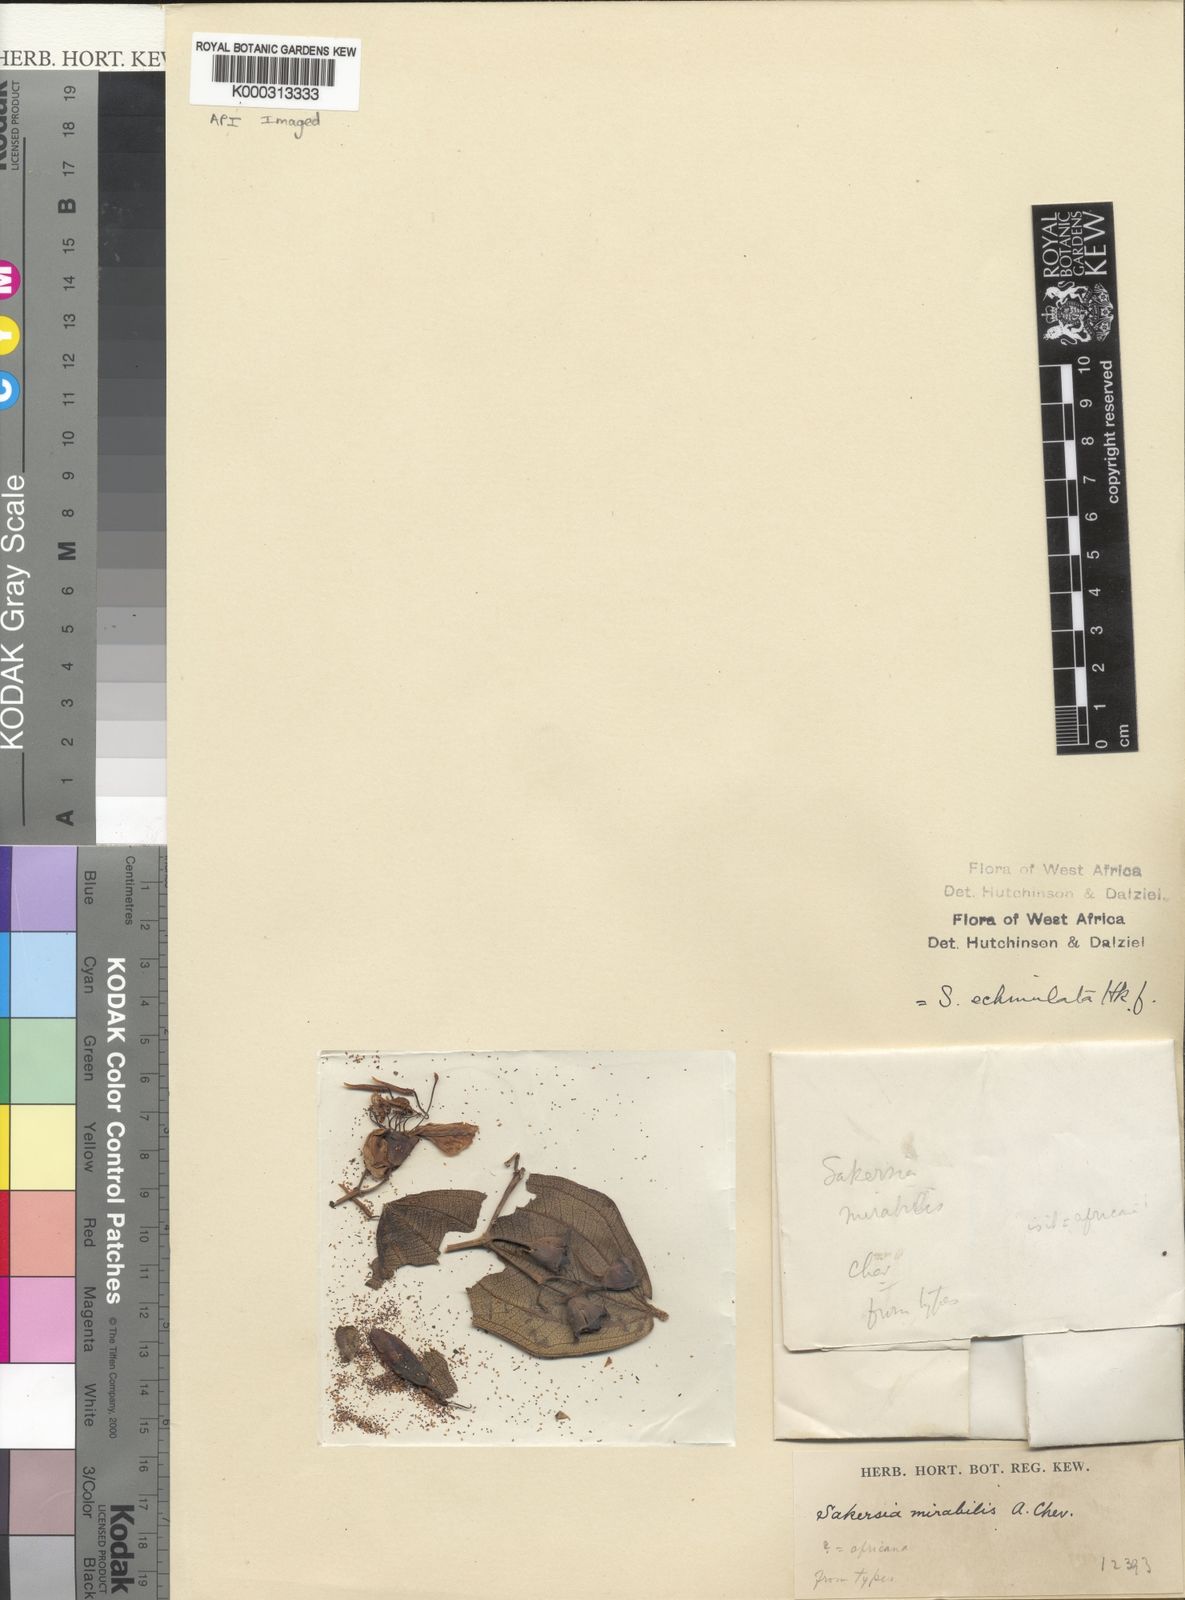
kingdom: Plantae
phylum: Tracheophyta
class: Magnoliopsida
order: Myrtales
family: Melastomataceae
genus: Dichaetanthera
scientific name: Dichaetanthera echinulata
